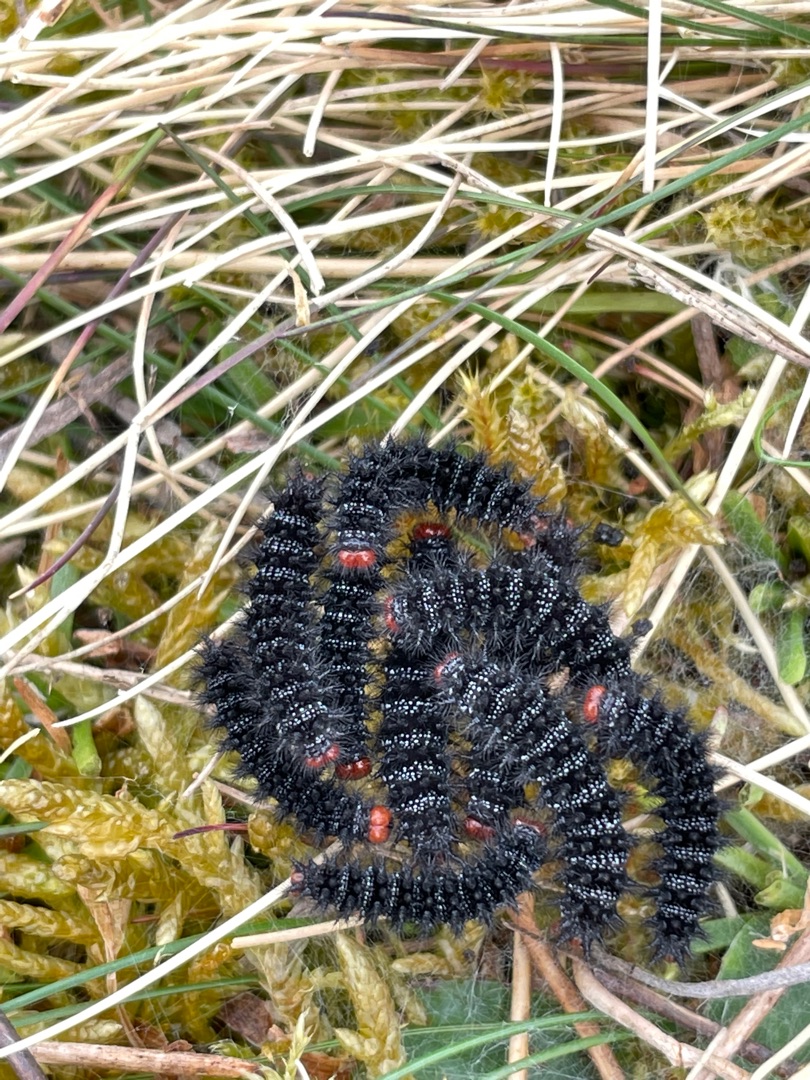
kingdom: Animalia
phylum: Arthropoda
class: Insecta
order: Lepidoptera
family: Nymphalidae
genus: Melitaea
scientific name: Melitaea cinxia
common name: Okkergul pletvinge
